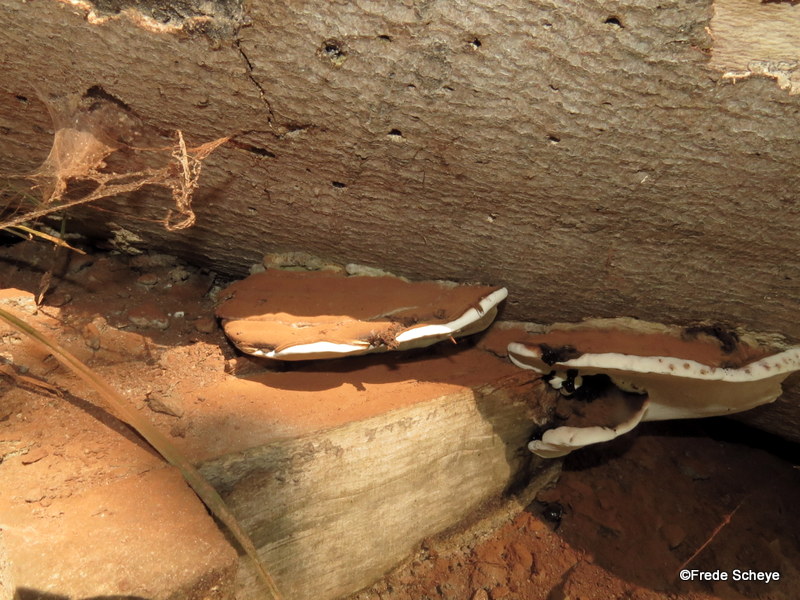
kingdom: Fungi
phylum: Basidiomycota
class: Agaricomycetes
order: Polyporales
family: Polyporaceae
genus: Ganoderma
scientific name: Ganoderma applanatum
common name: flad lakporesvamp
